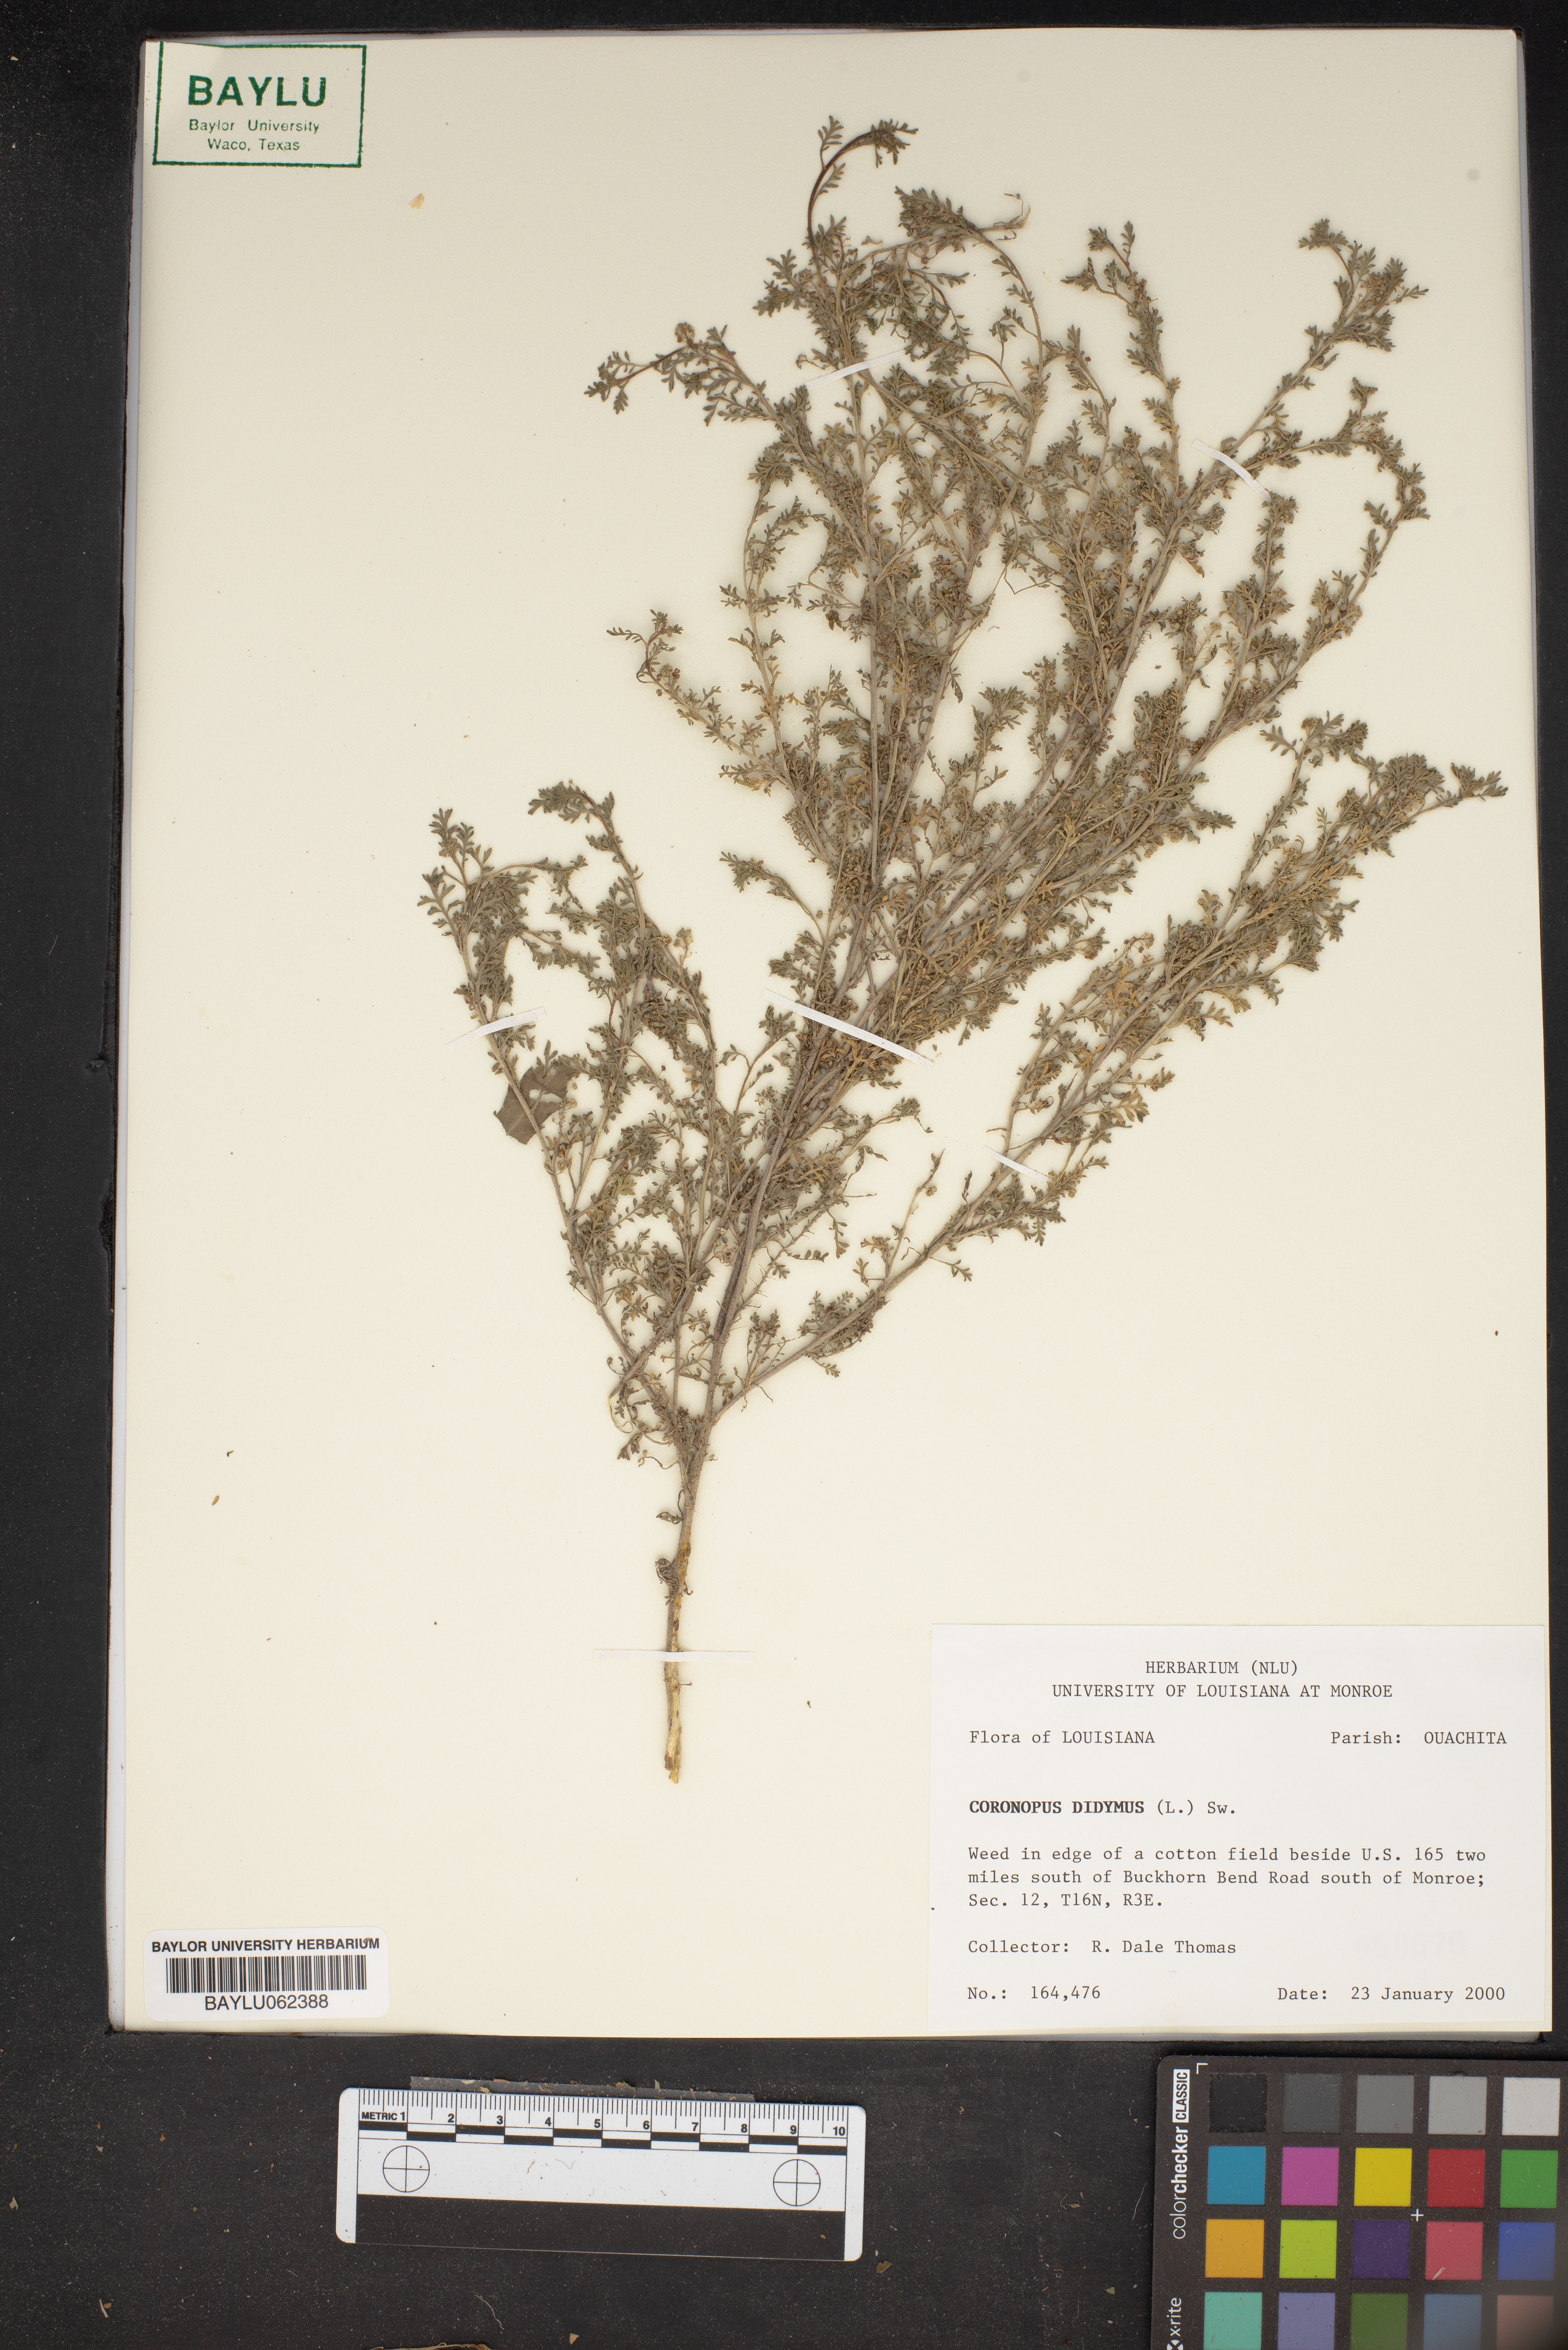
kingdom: Plantae
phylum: Tracheophyta
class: Magnoliopsida
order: Brassicales
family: Brassicaceae
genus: Lepidium
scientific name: Lepidium didymum
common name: Lesser swinecress
